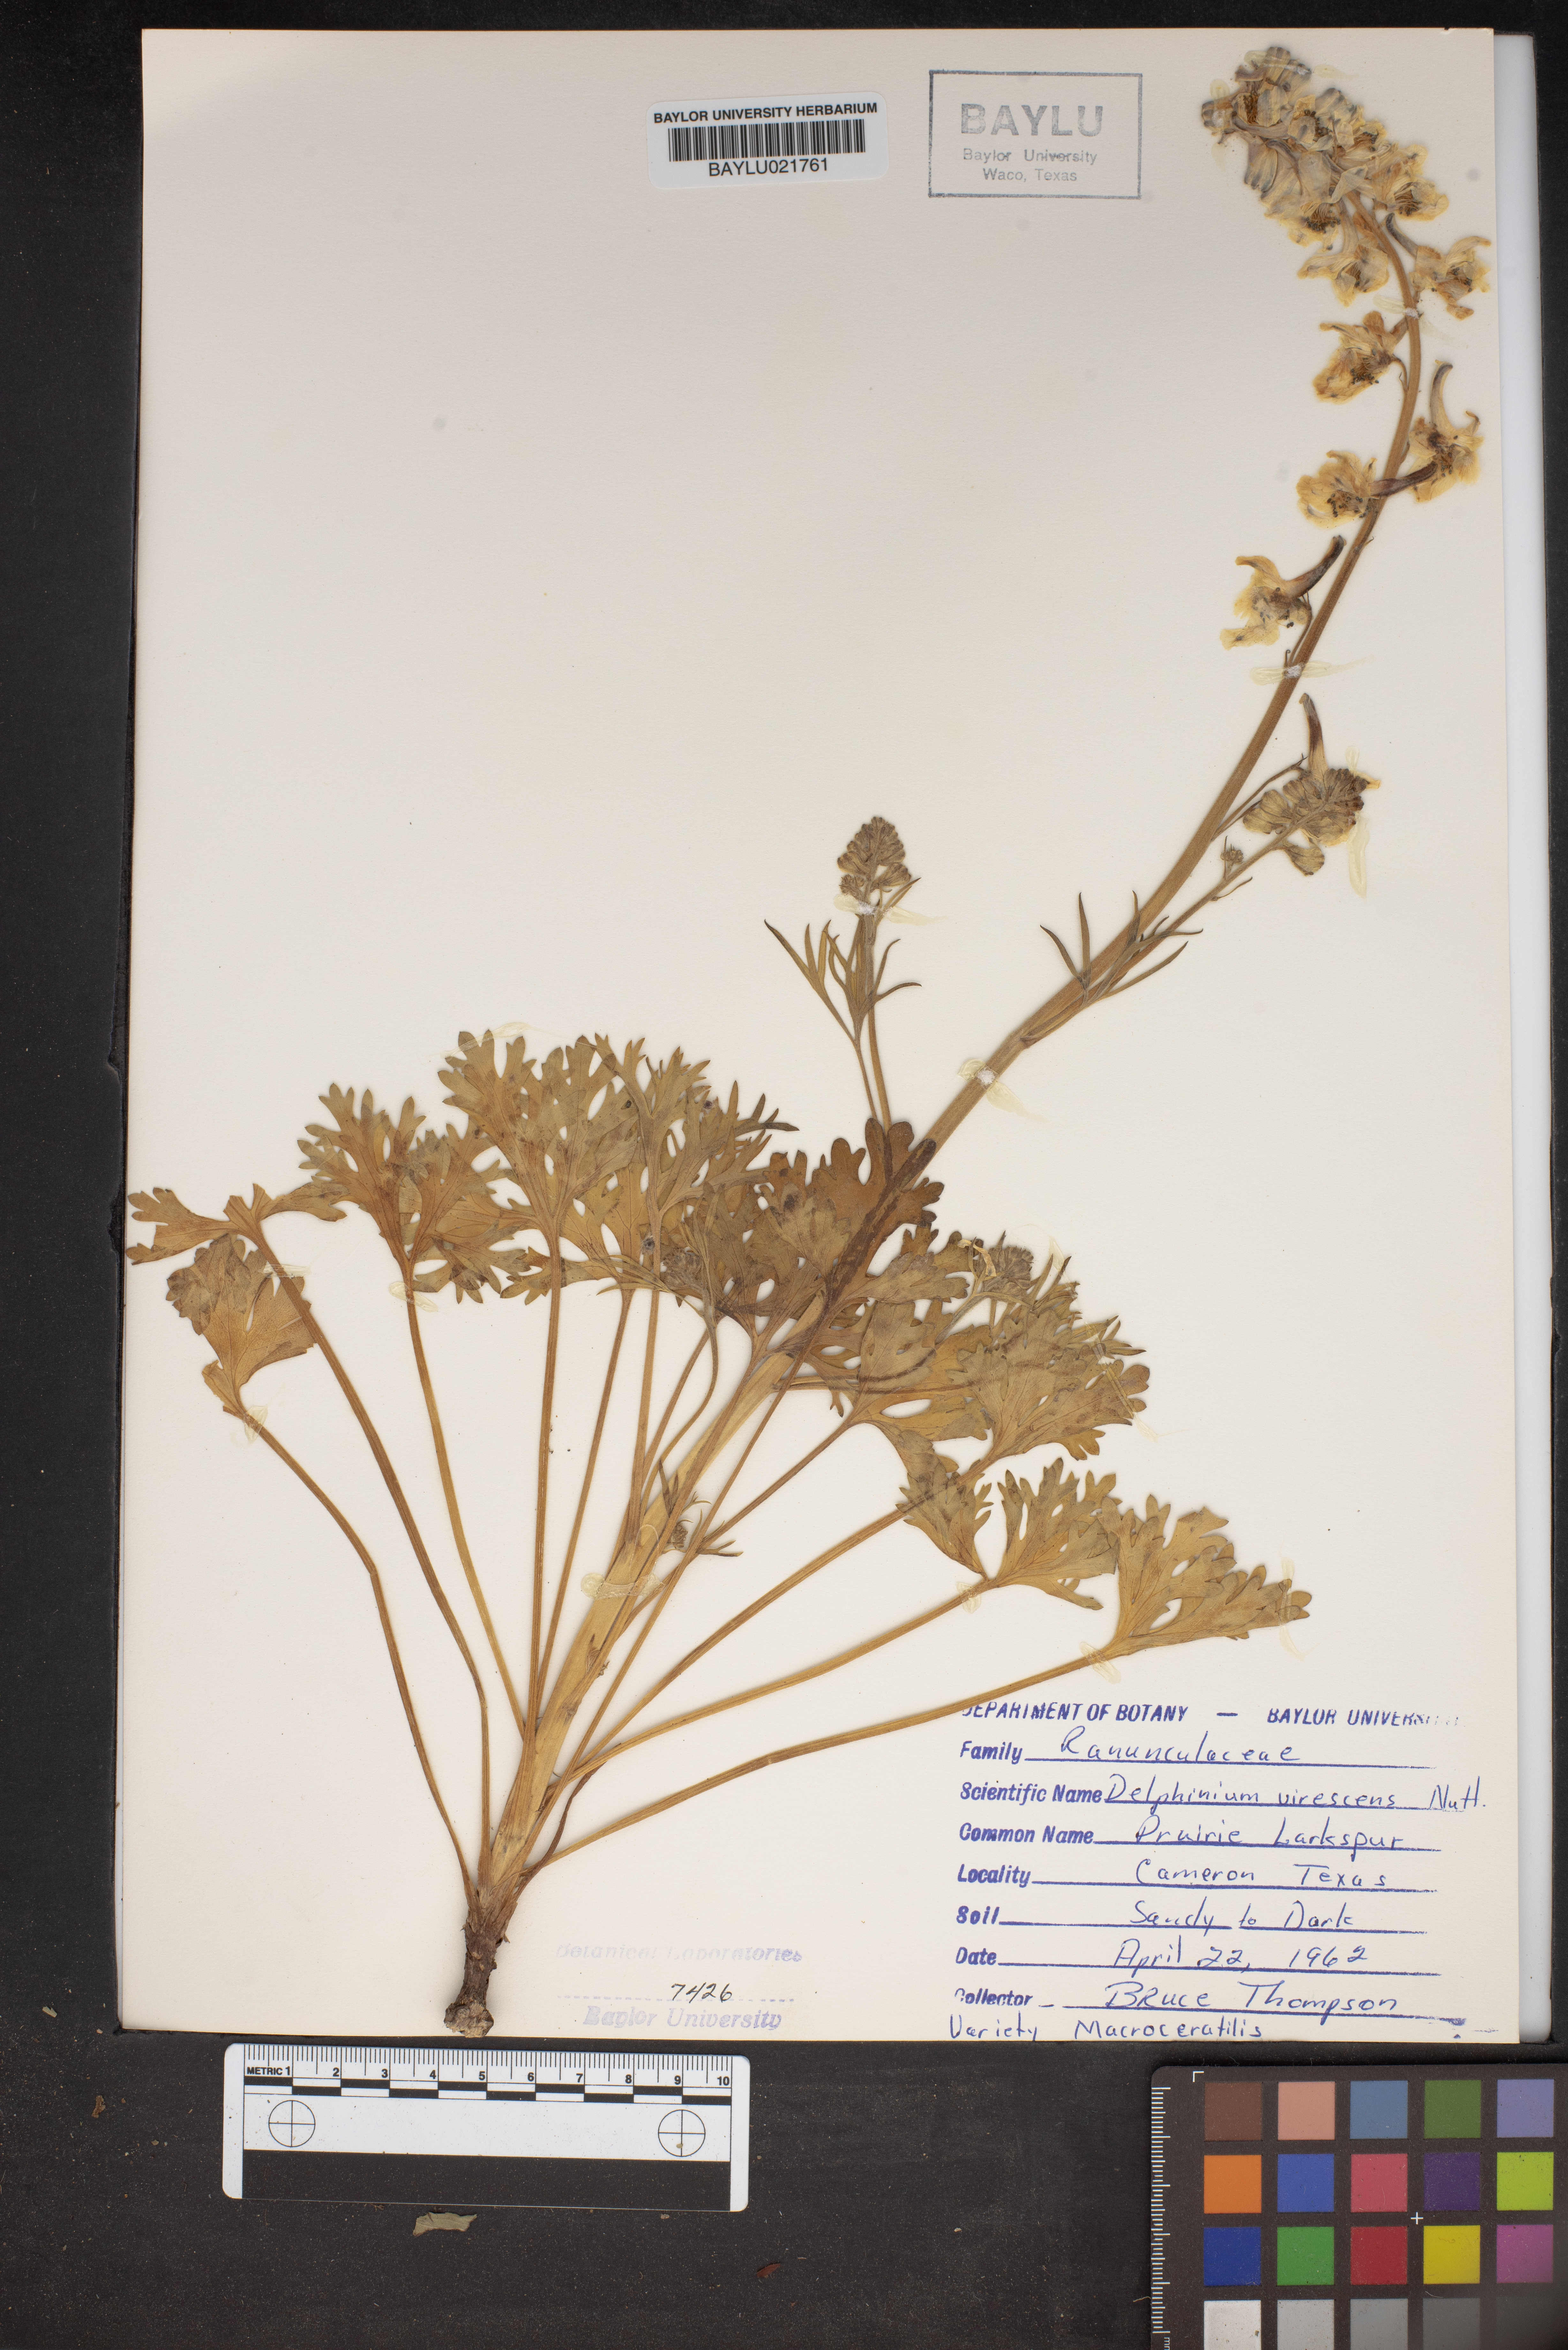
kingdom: Plantae
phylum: Tracheophyta
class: Magnoliopsida
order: Ranunculales
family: Ranunculaceae
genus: Delphinium
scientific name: Delphinium carolinianum
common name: Carolina larkspur
